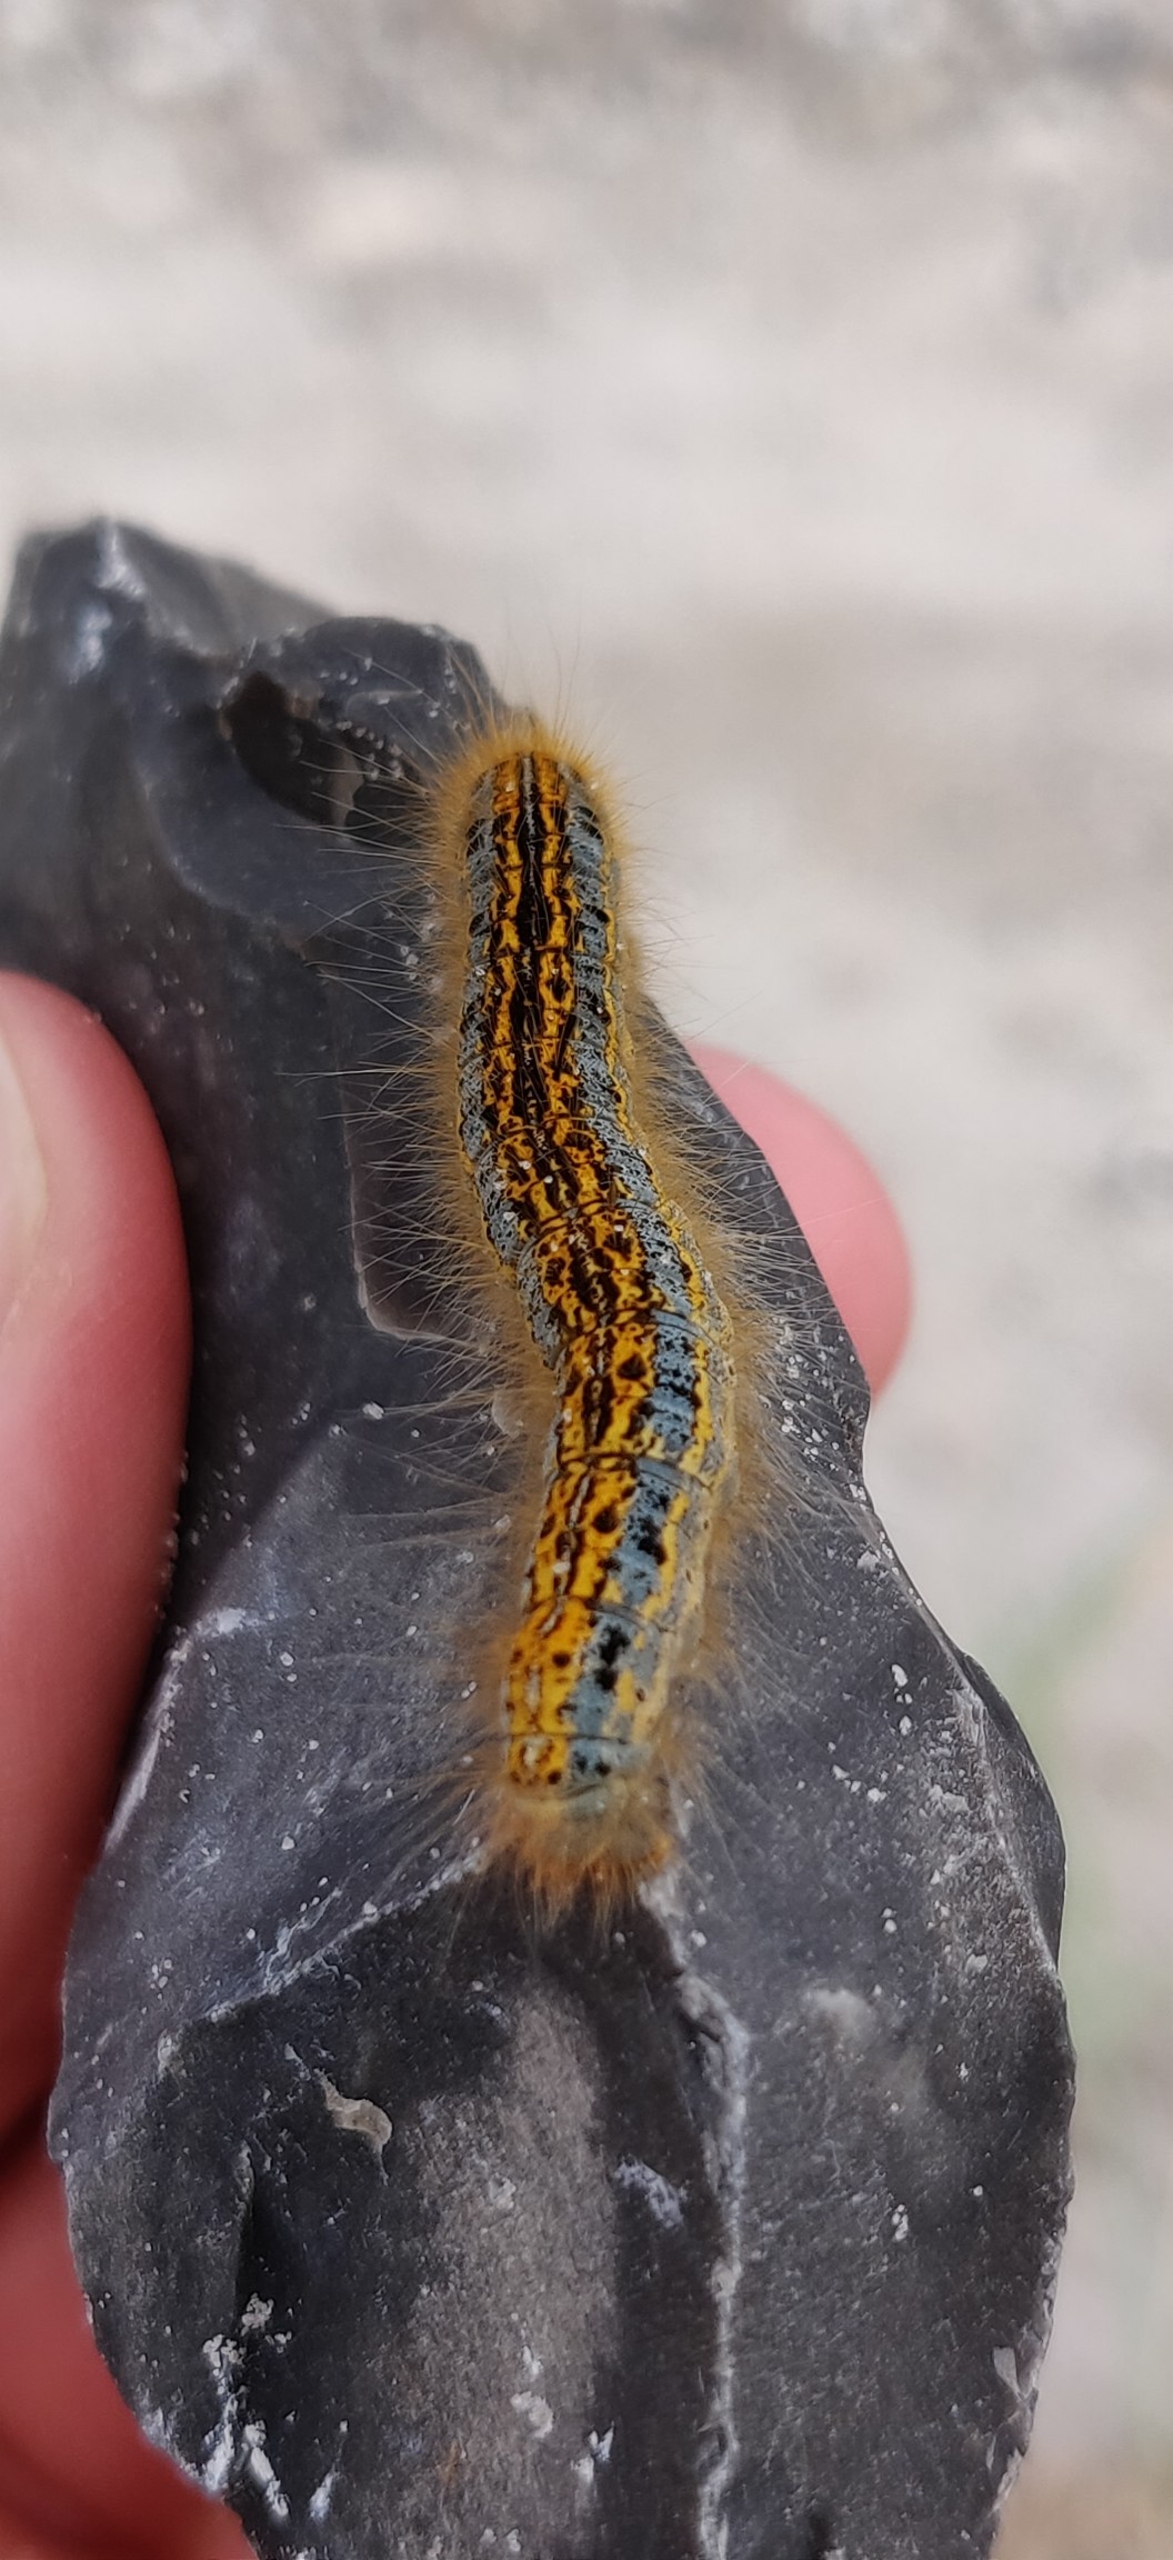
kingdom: Animalia
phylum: Arthropoda
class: Insecta
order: Lepidoptera
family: Lasiocampidae
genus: Malacosoma
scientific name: Malacosoma castrensis
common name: Redespinder
